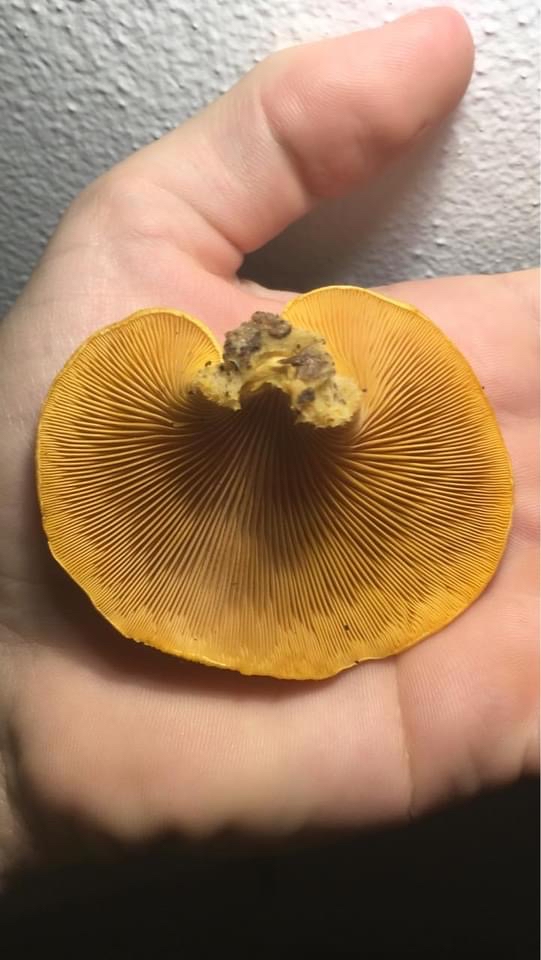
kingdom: Fungi
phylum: Basidiomycota
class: Agaricomycetes
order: Agaricales
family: Phyllotopsidaceae
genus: Phyllotopsis
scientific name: Phyllotopsis nidulans
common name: okkerblad
